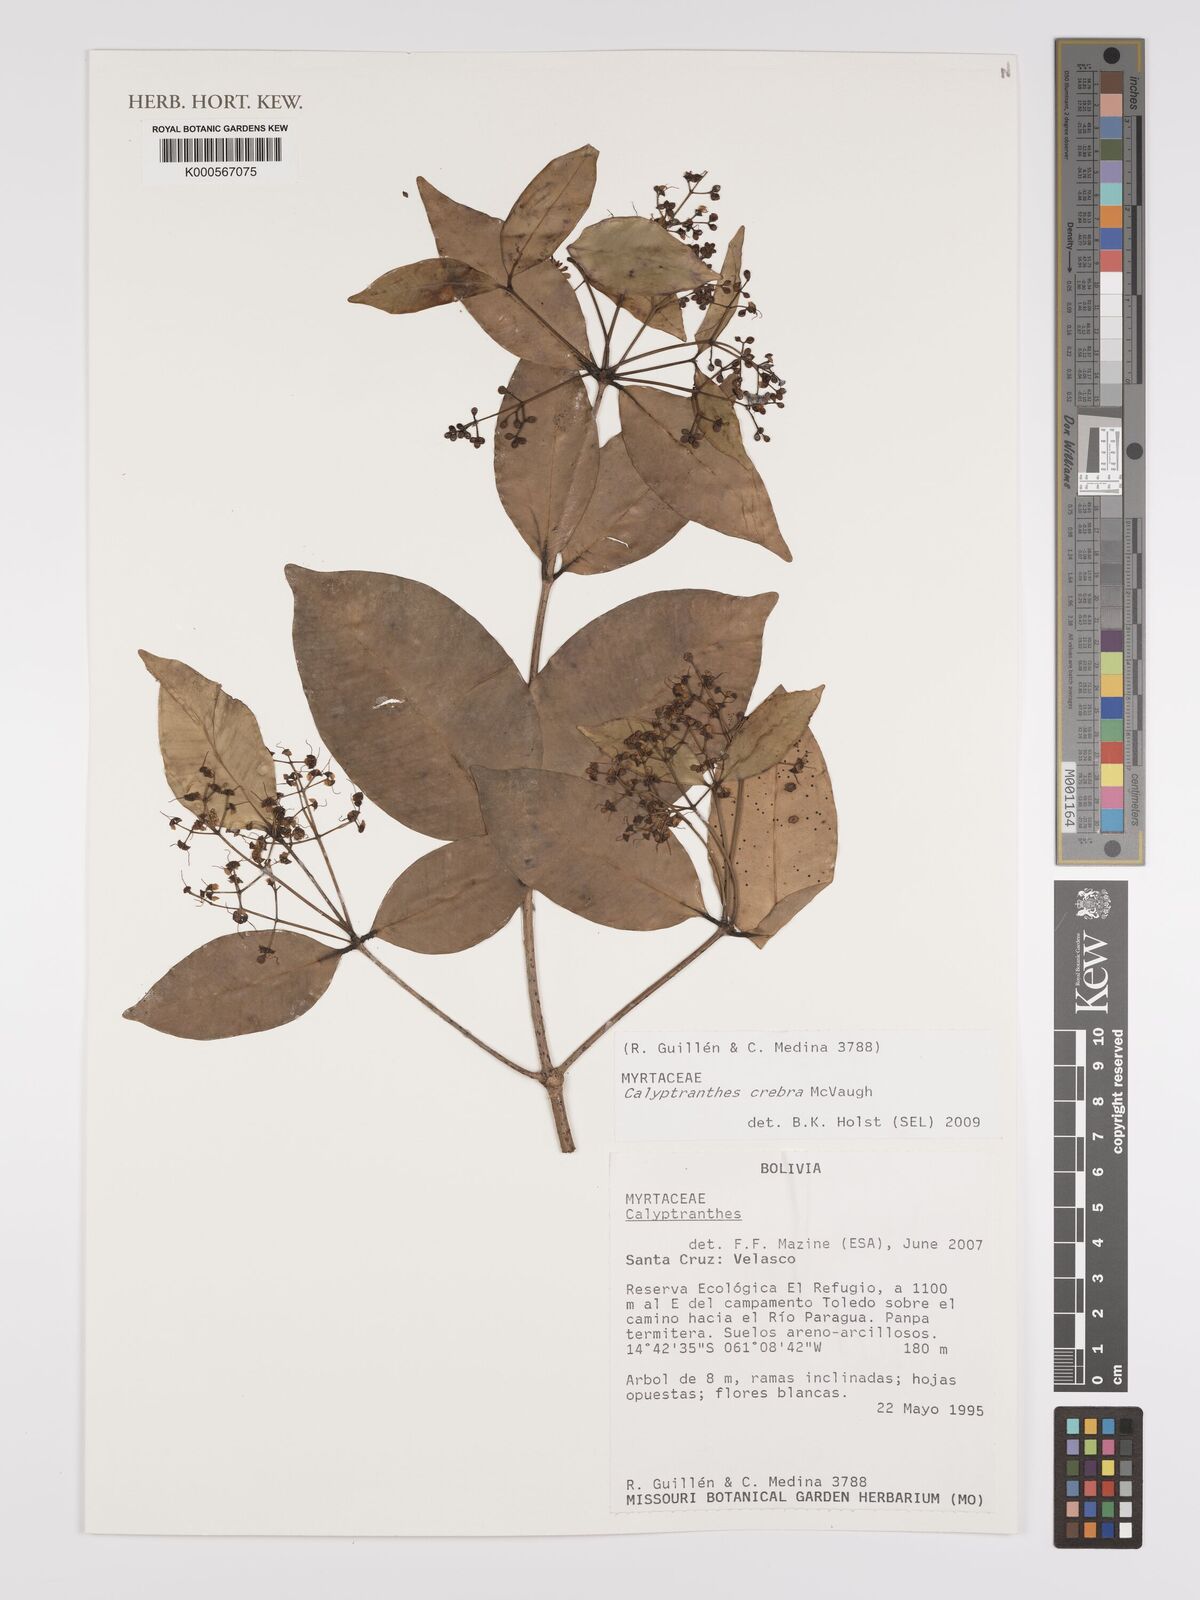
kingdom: Plantae
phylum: Tracheophyta
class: Magnoliopsida
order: Myrtales
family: Myrtaceae
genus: Calyptranthes
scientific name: Calyptranthes
